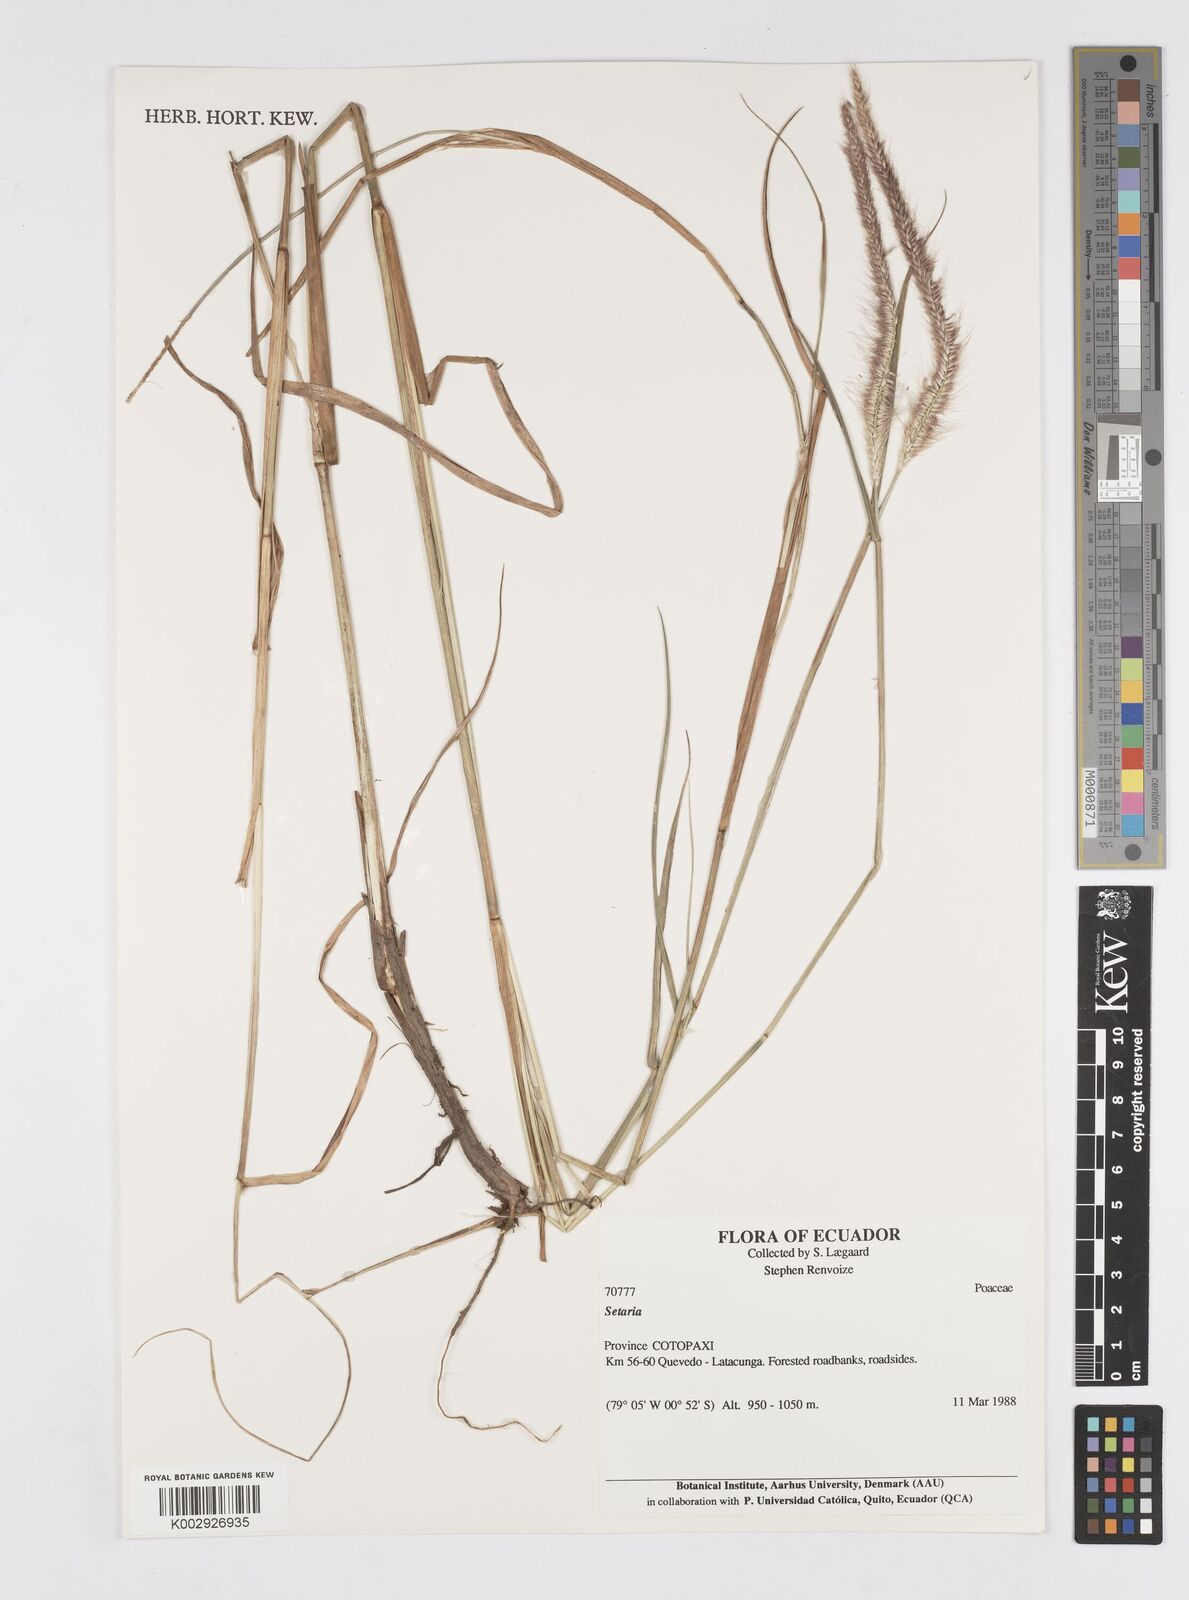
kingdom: Plantae
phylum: Tracheophyta
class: Liliopsida
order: Poales
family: Poaceae
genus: Setaria
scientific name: Setaria parviflora
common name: Knotroot bristle-grass
